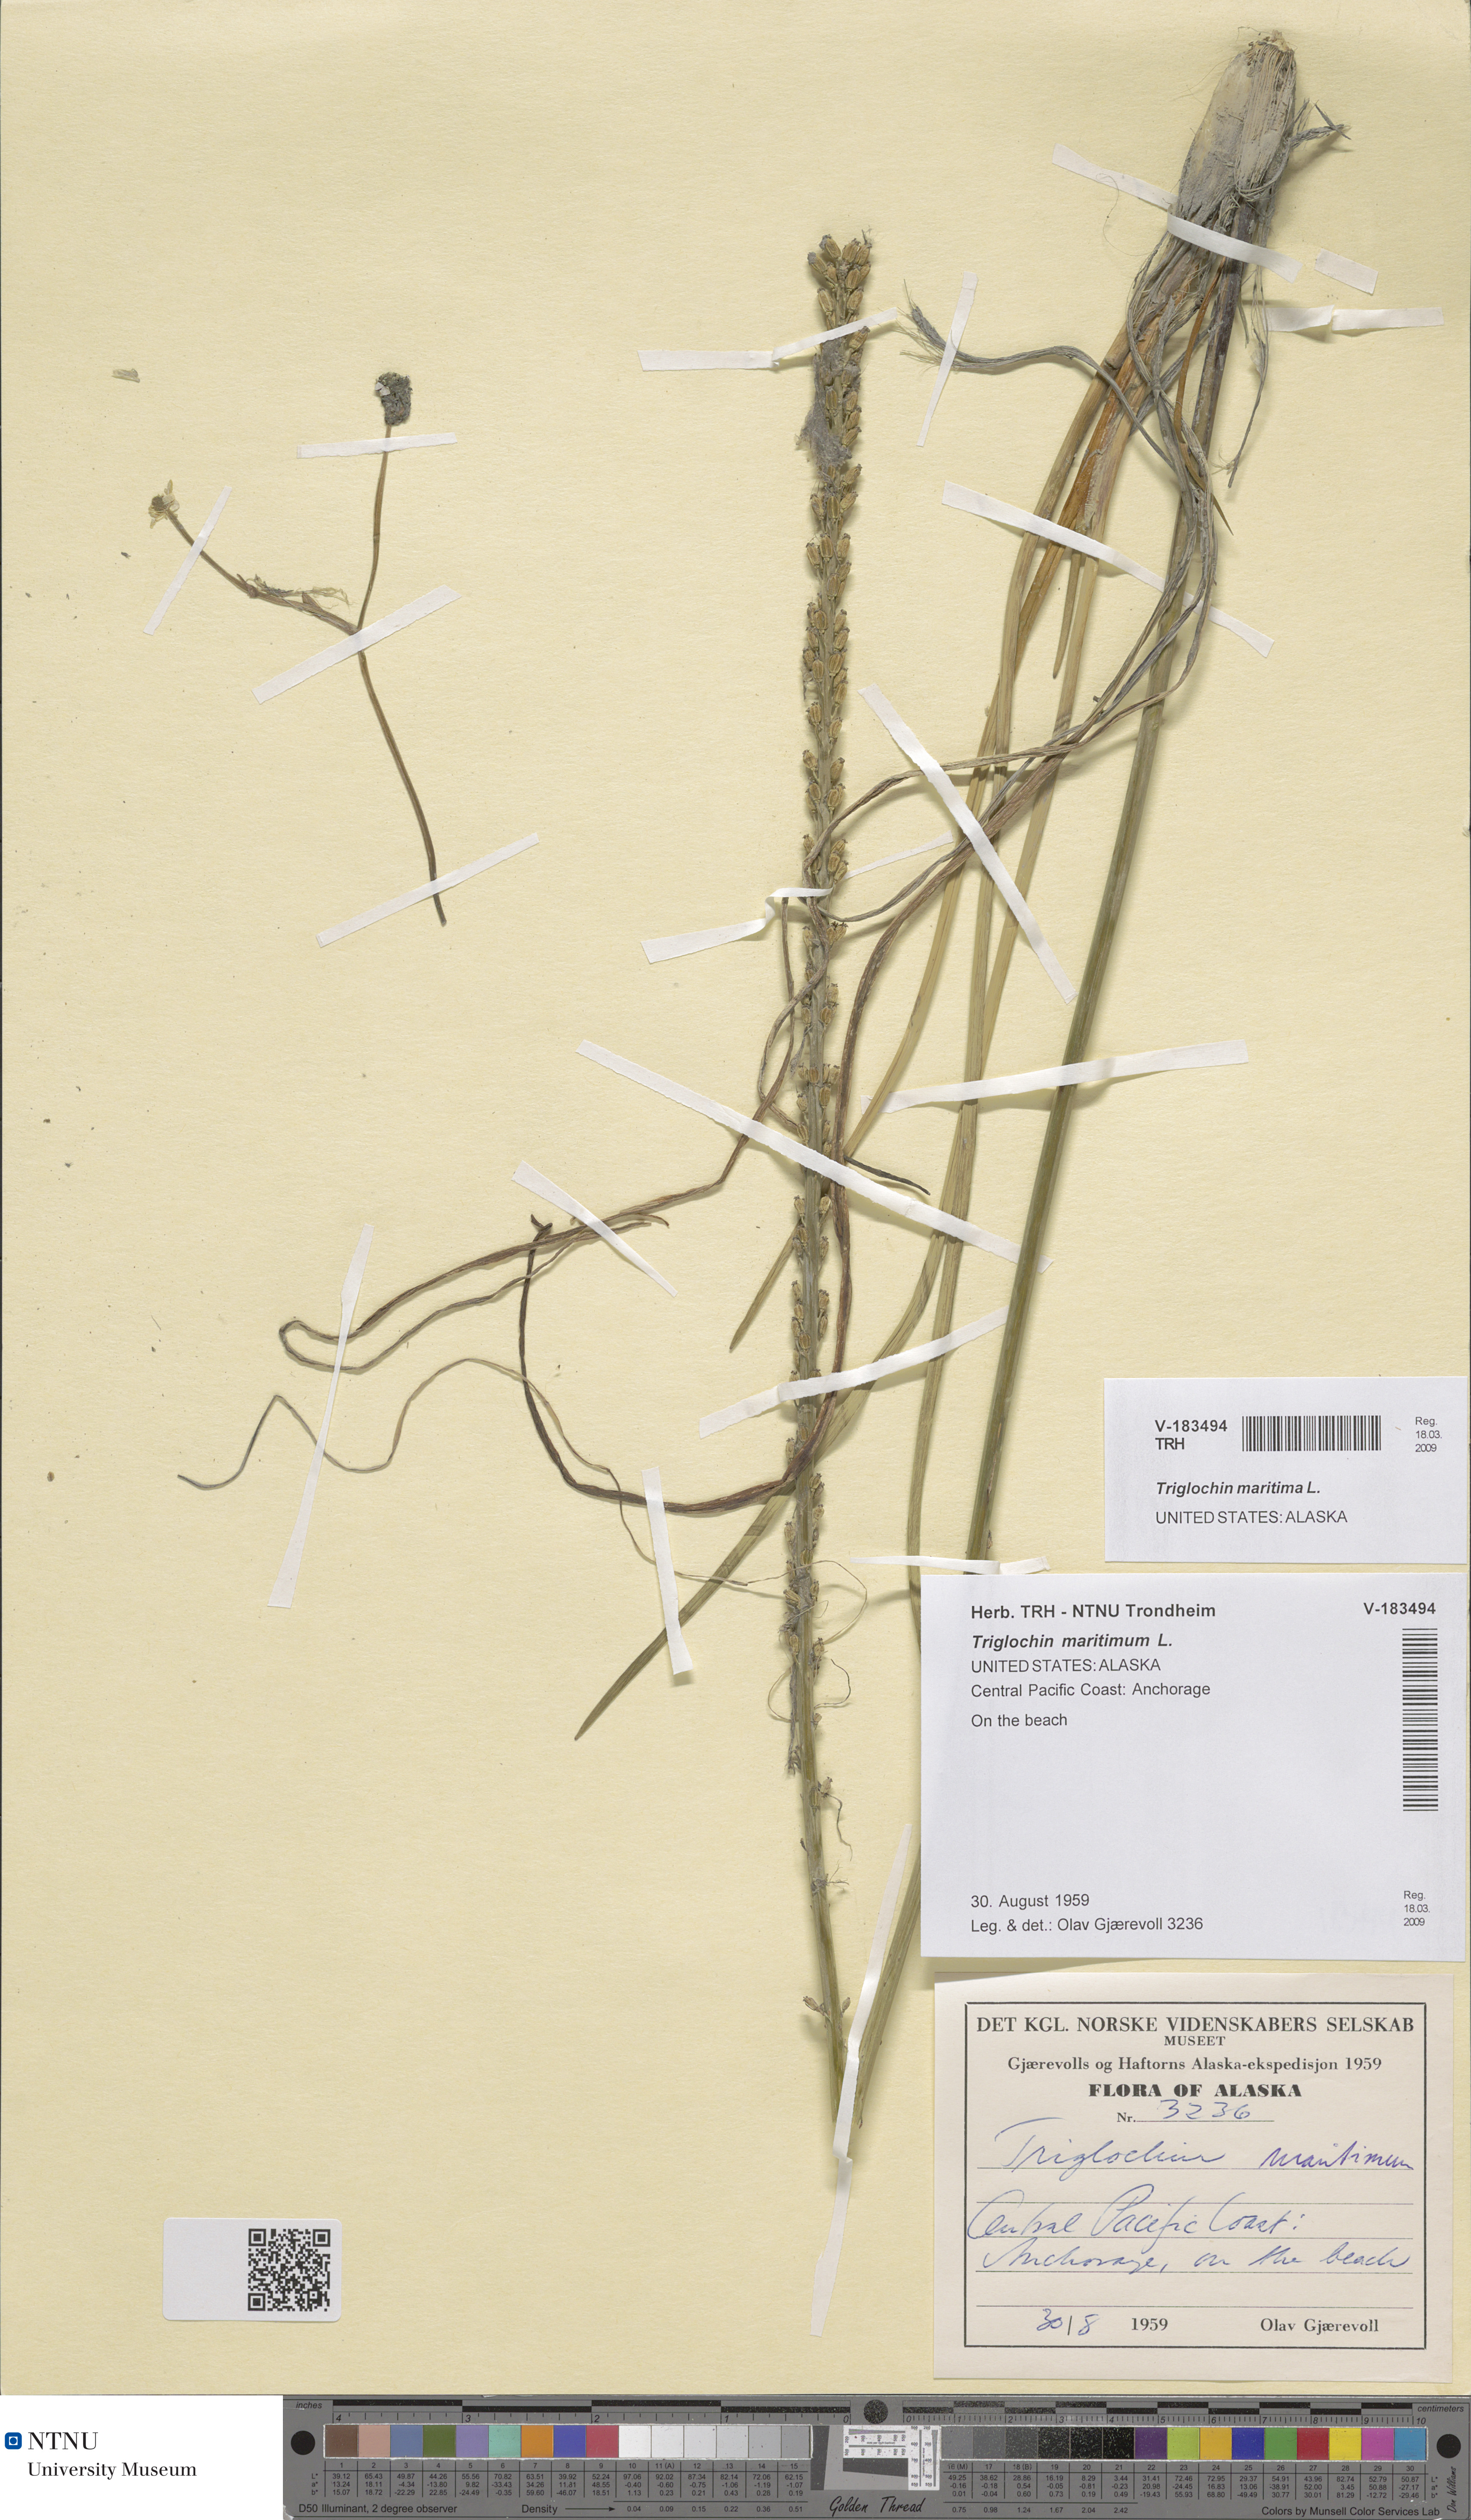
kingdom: Plantae
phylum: Tracheophyta
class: Liliopsida
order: Alismatales
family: Juncaginaceae
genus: Triglochin
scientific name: Triglochin maritima
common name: Sea arrowgrass
